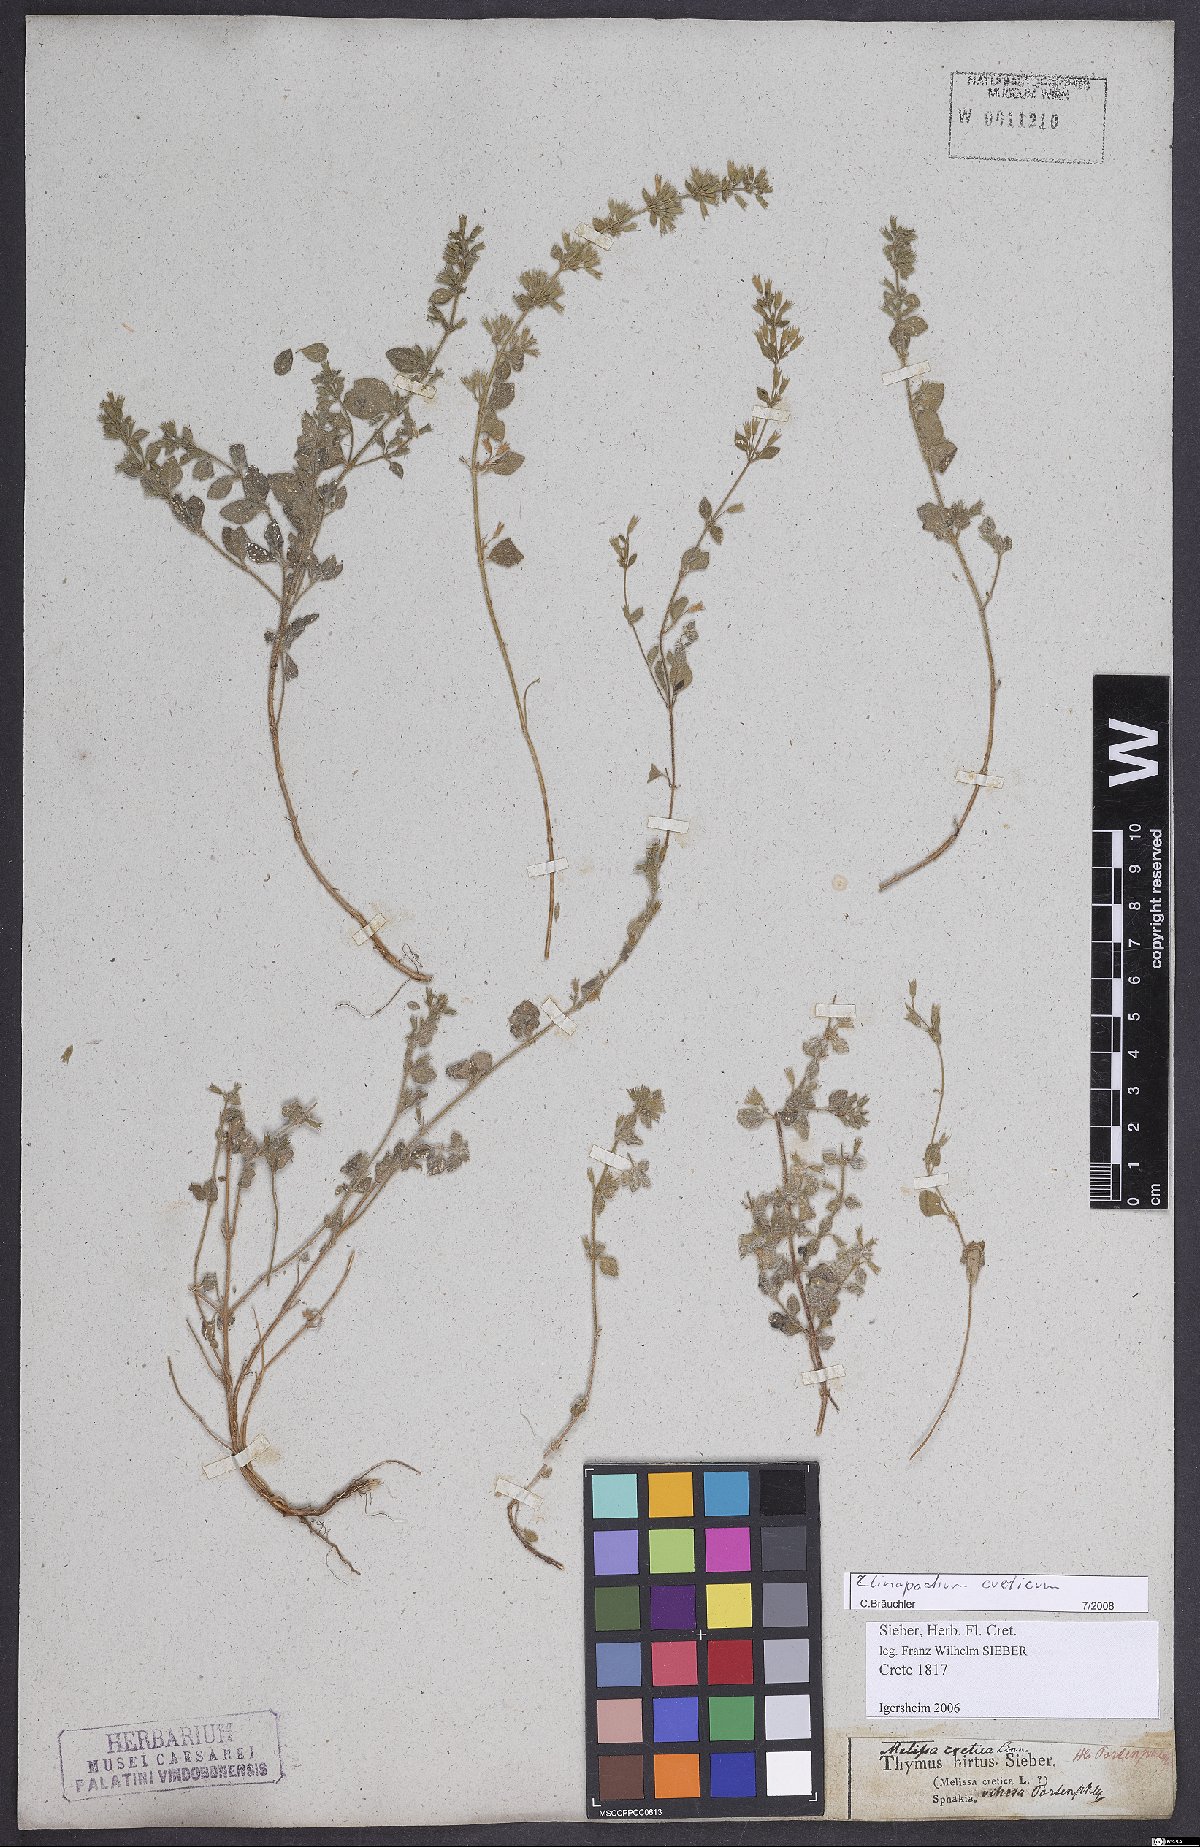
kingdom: Plantae
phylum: Tracheophyta
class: Magnoliopsida
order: Lamiales
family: Lamiaceae
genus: Clinopodium
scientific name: Clinopodium creticum
